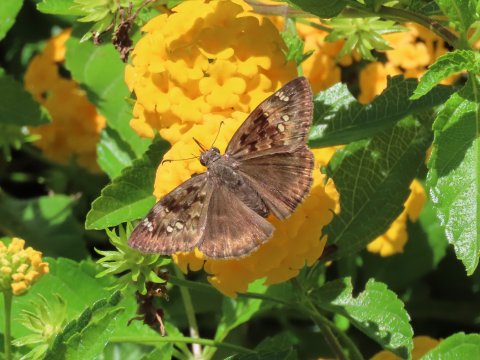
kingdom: Animalia
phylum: Arthropoda
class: Insecta
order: Lepidoptera
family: Hesperiidae
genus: Gesta
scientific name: Gesta
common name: Horace's Duskywing
